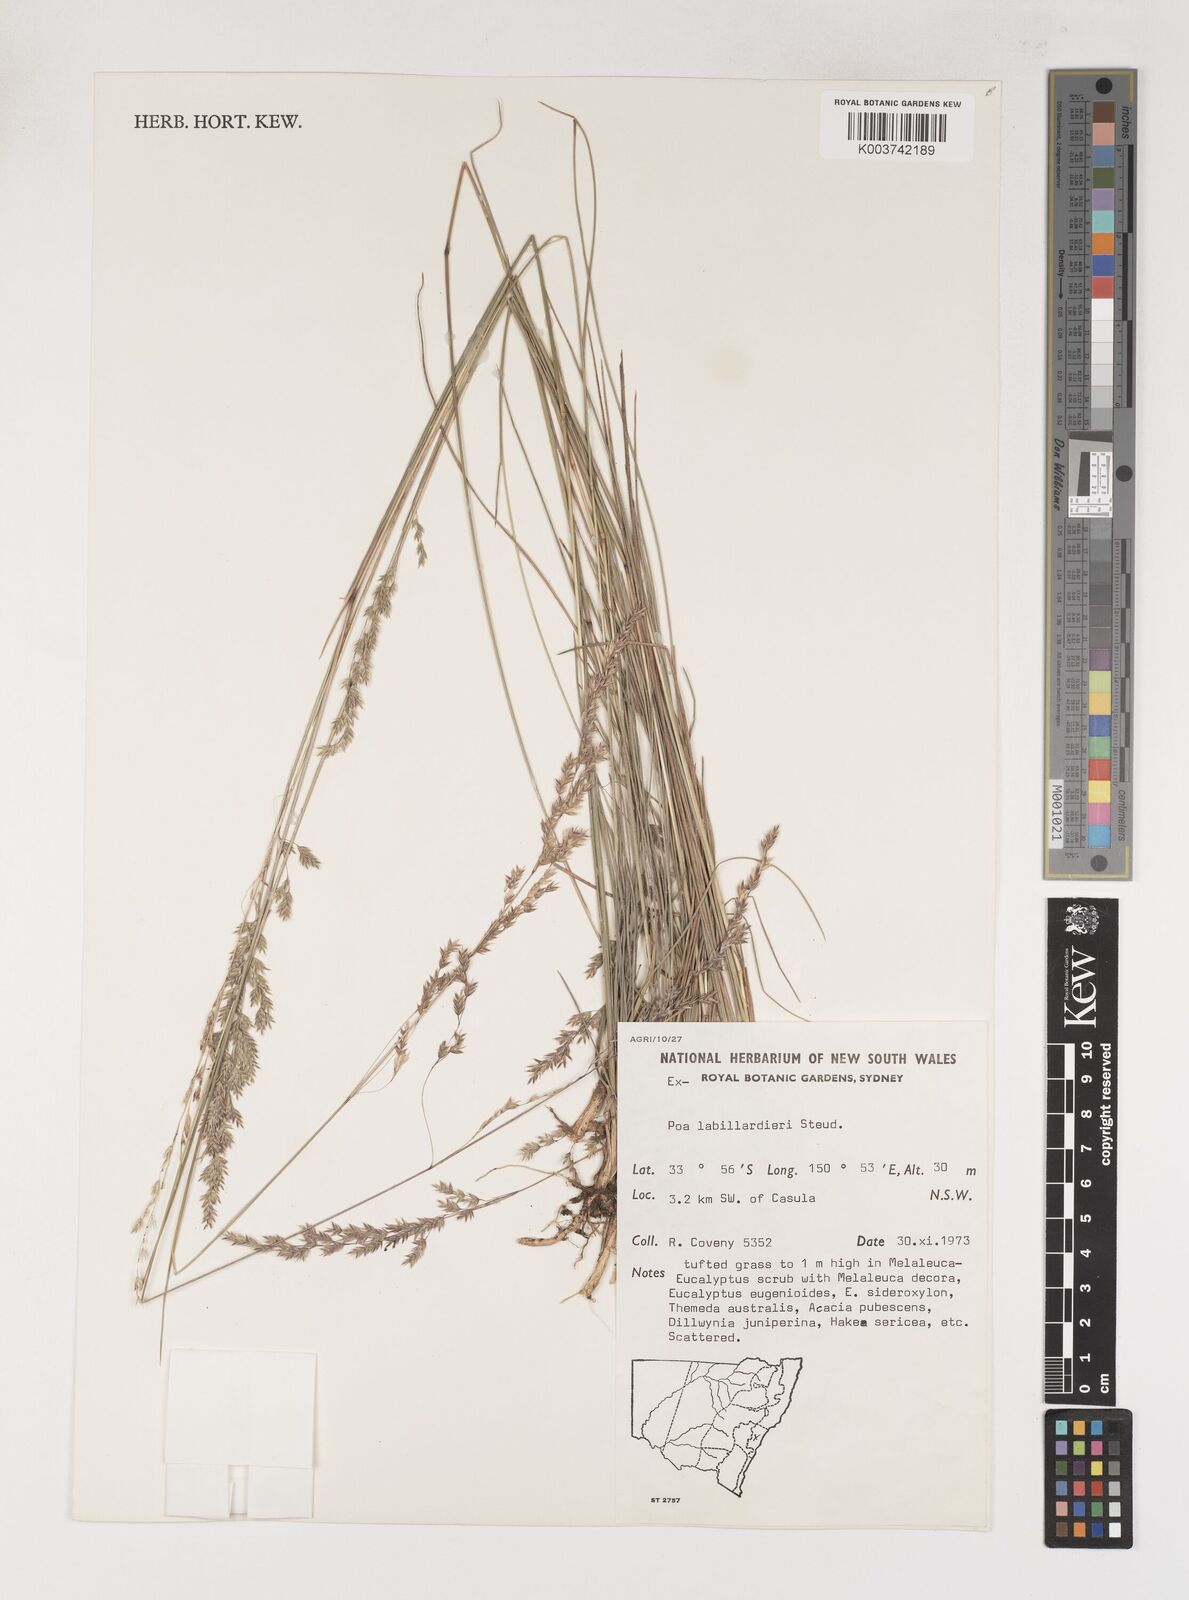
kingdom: Plantae
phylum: Tracheophyta
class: Liliopsida
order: Poales
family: Poaceae
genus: Poa
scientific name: Poa labillardierei
